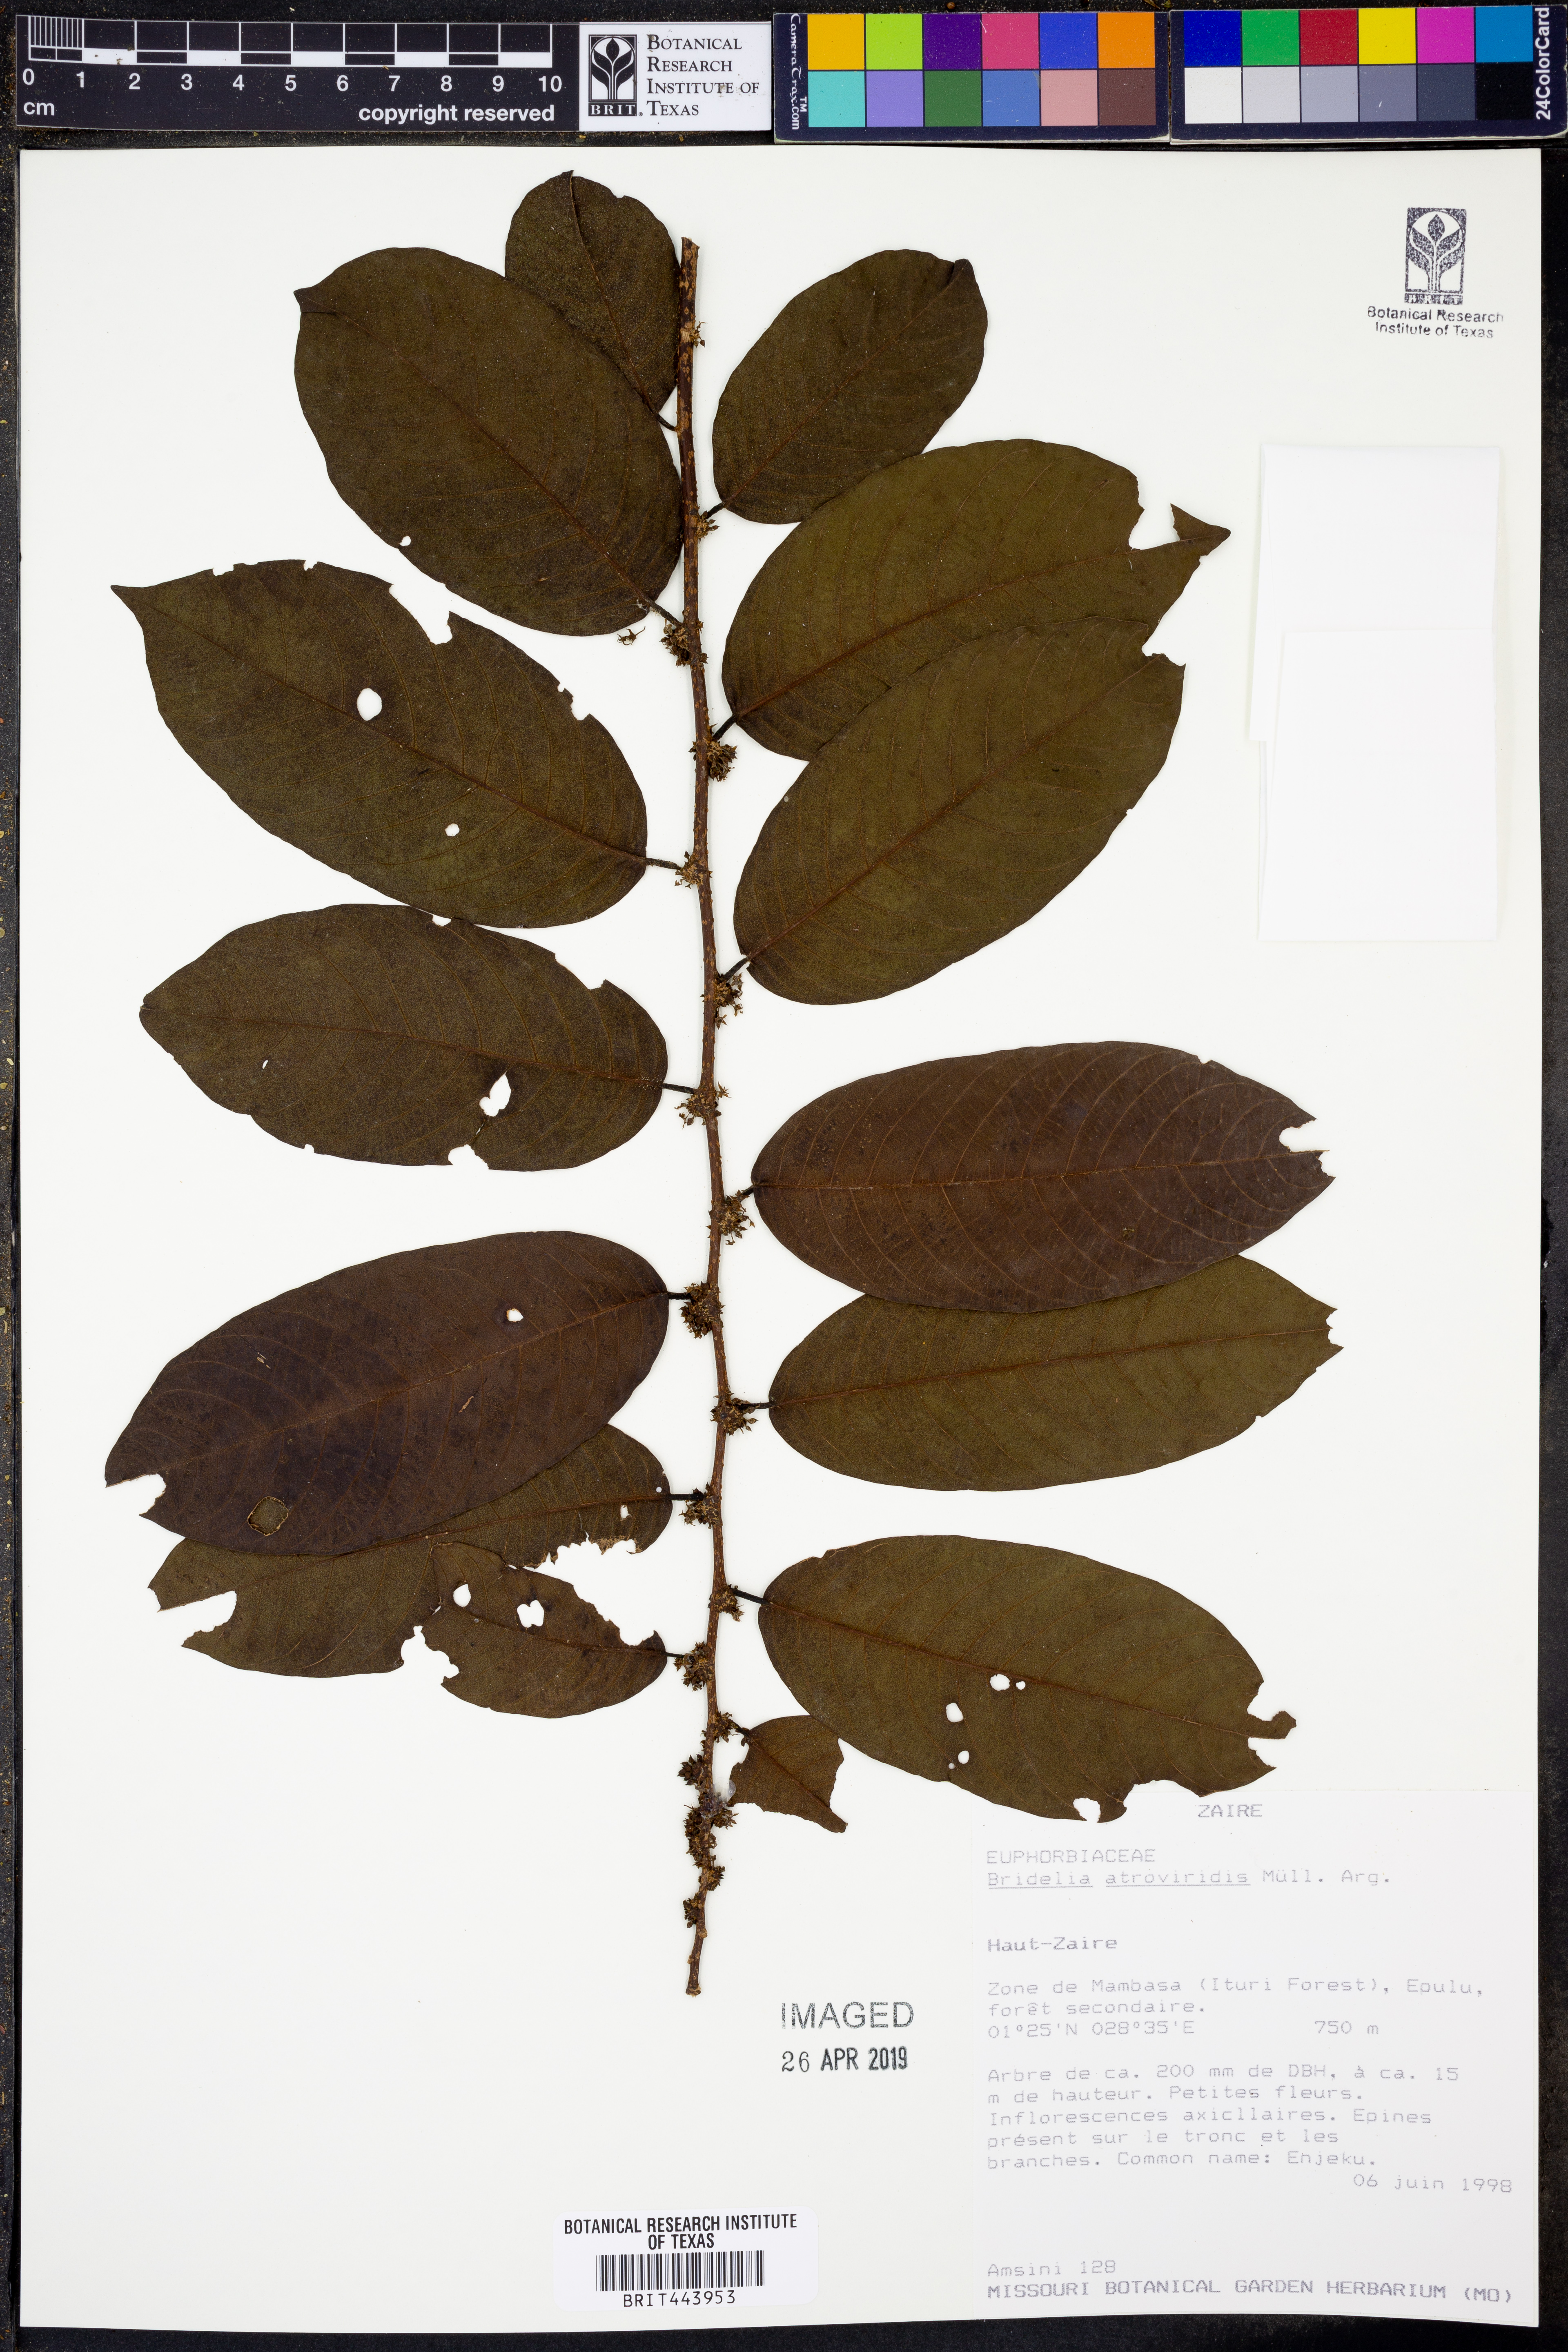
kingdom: Plantae
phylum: Tracheophyta
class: Magnoliopsida
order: Malpighiales
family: Phyllanthaceae
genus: Bridelia
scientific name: Bridelia atroviridis
